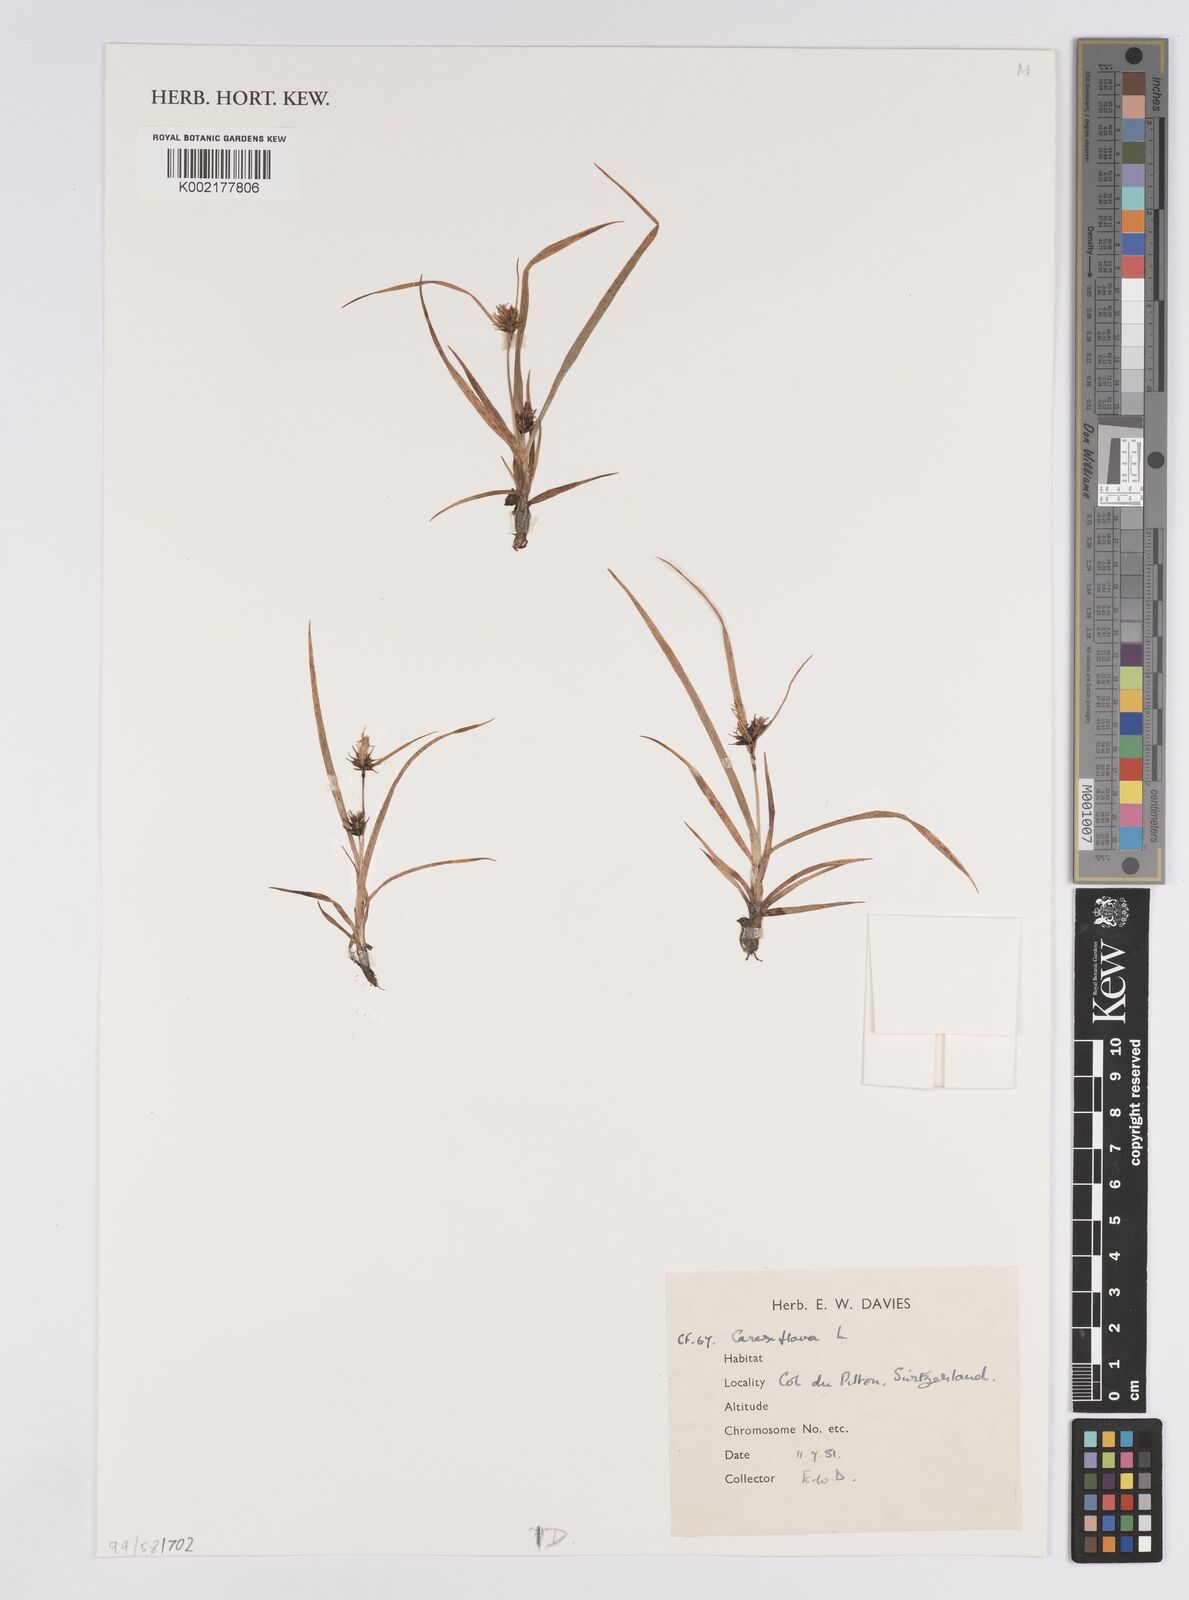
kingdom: Plantae
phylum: Tracheophyta
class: Liliopsida
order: Poales
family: Cyperaceae
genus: Carex
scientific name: Carex flava
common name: Large yellow-sedge
